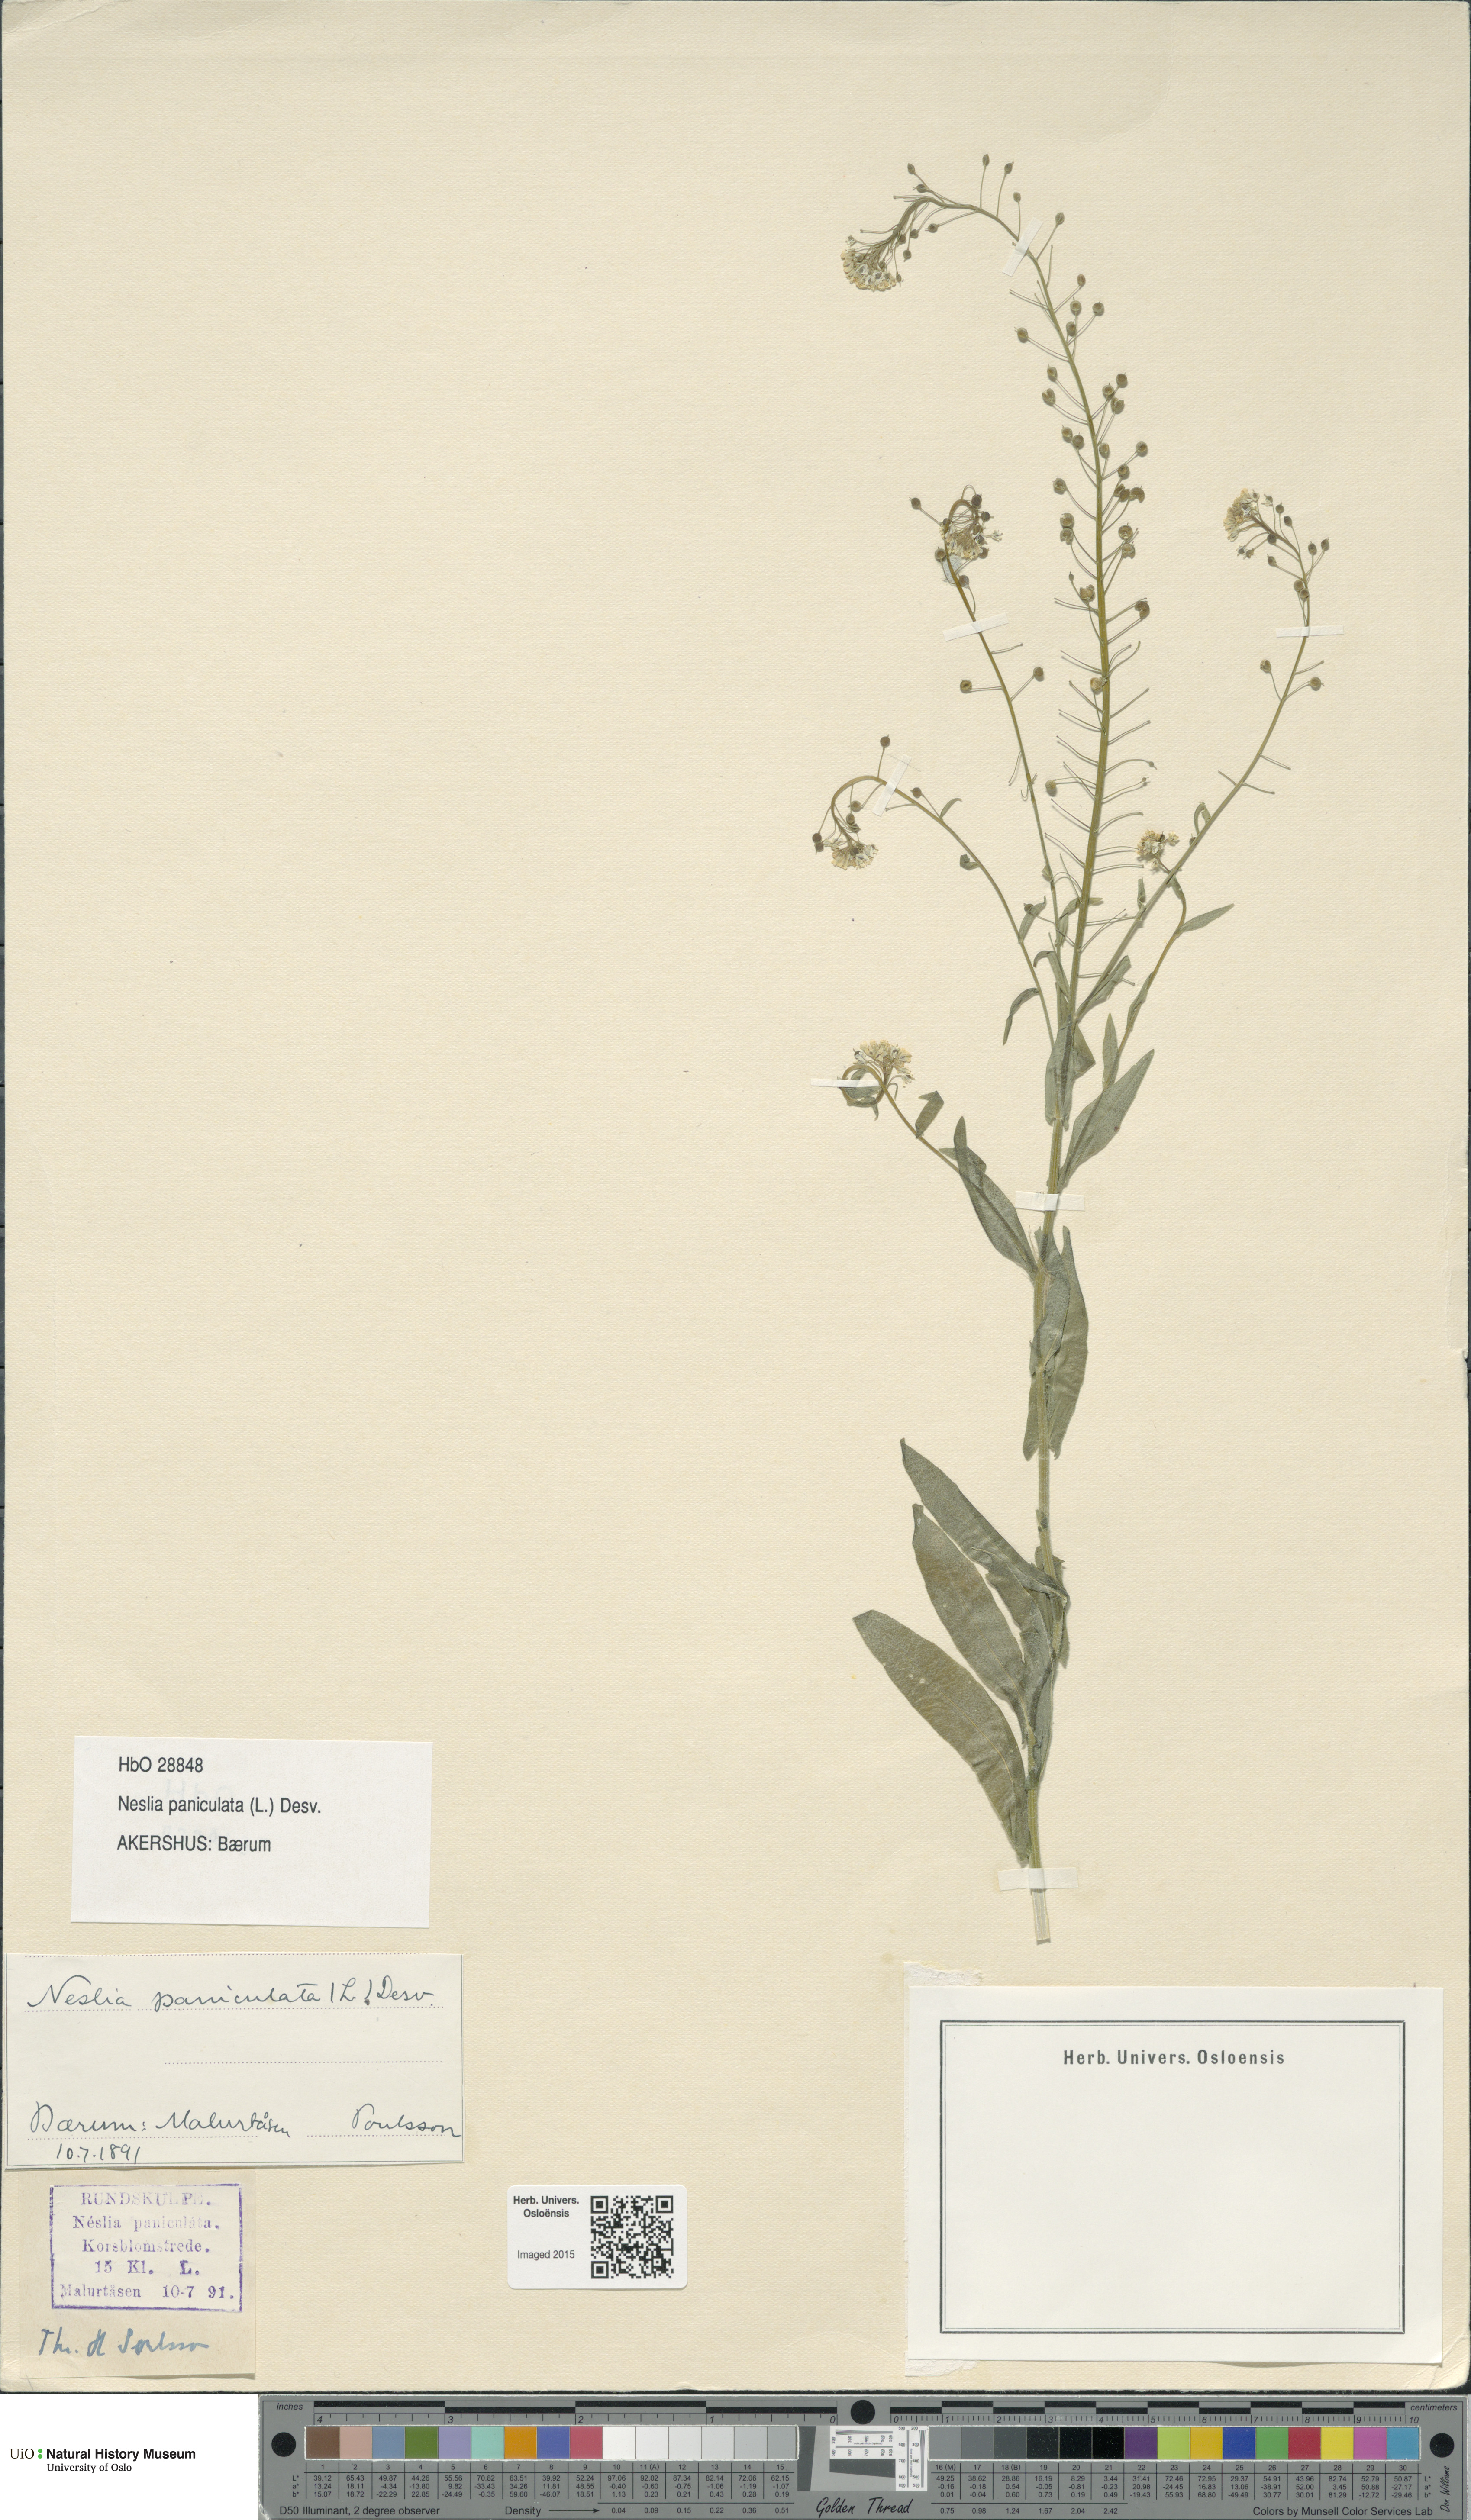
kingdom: Plantae
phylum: Tracheophyta
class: Magnoliopsida
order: Brassicales
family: Brassicaceae
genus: Neslia
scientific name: Neslia paniculata
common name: Ball mustard
